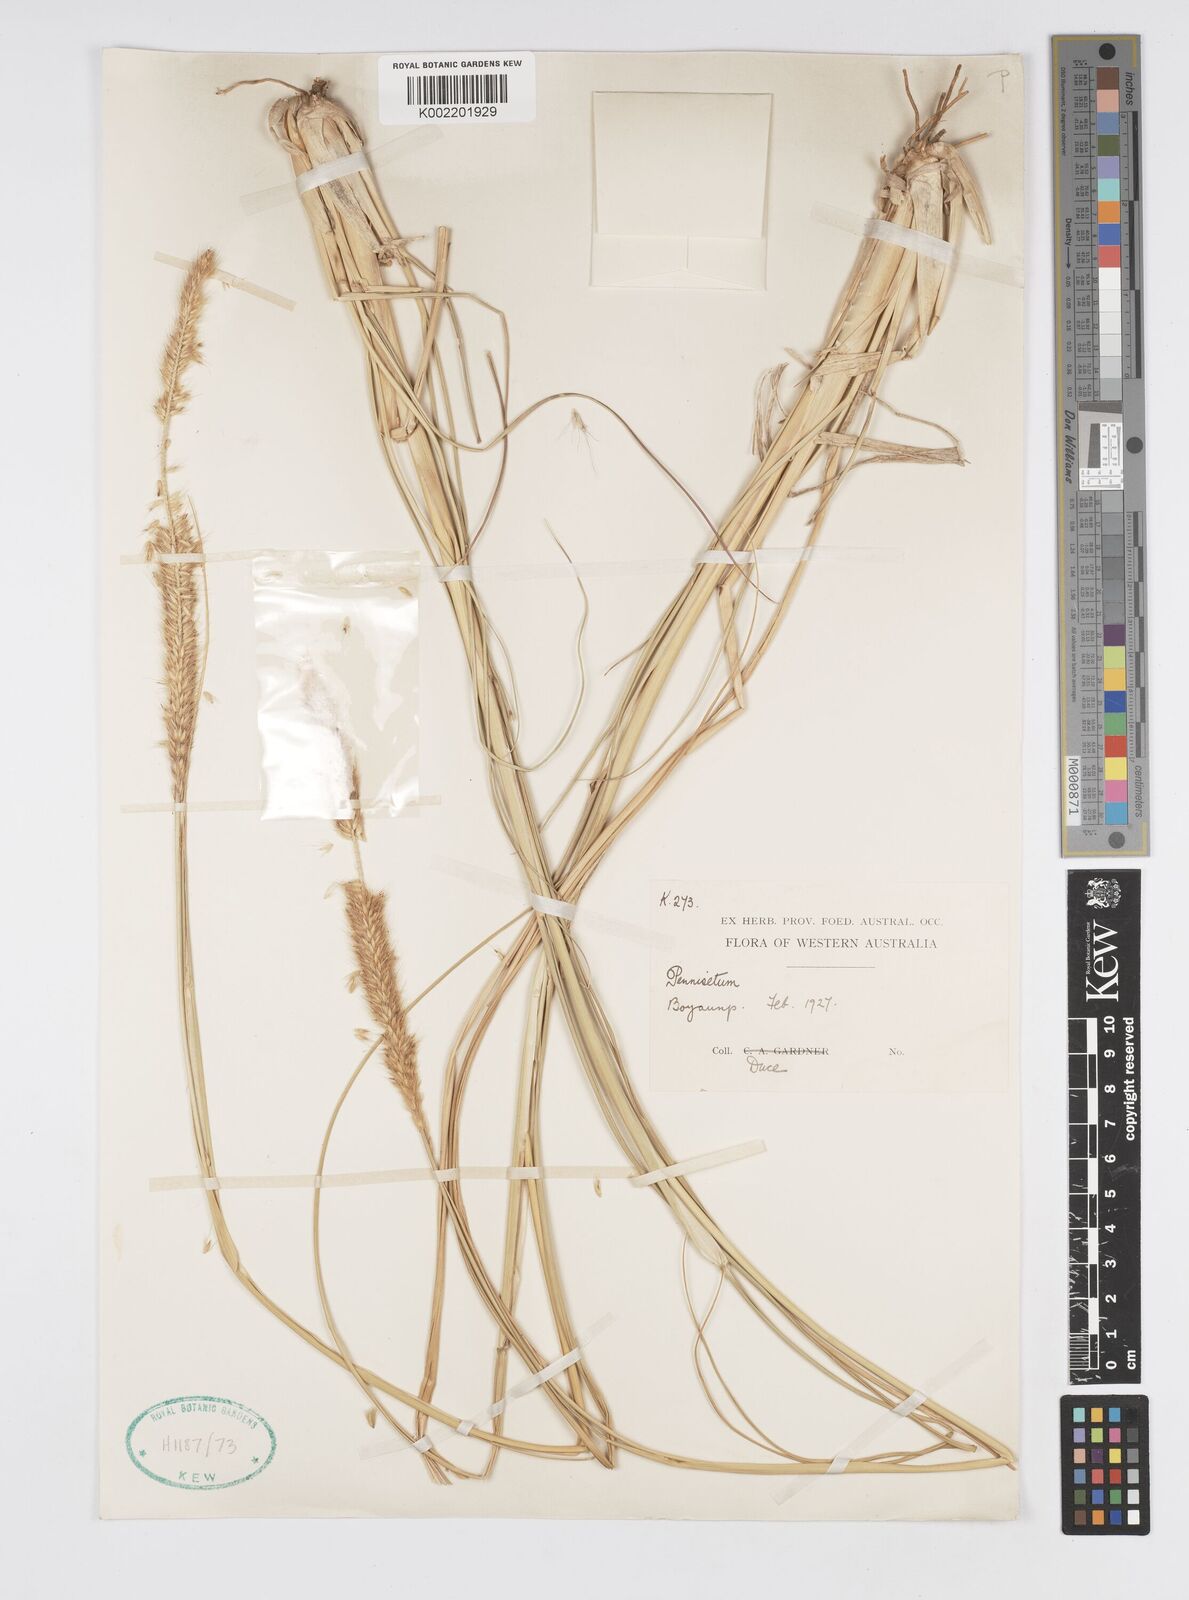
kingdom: Plantae
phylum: Tracheophyta
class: Liliopsida
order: Poales
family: Poaceae
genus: Cenchrus
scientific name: Cenchrus caudatus
